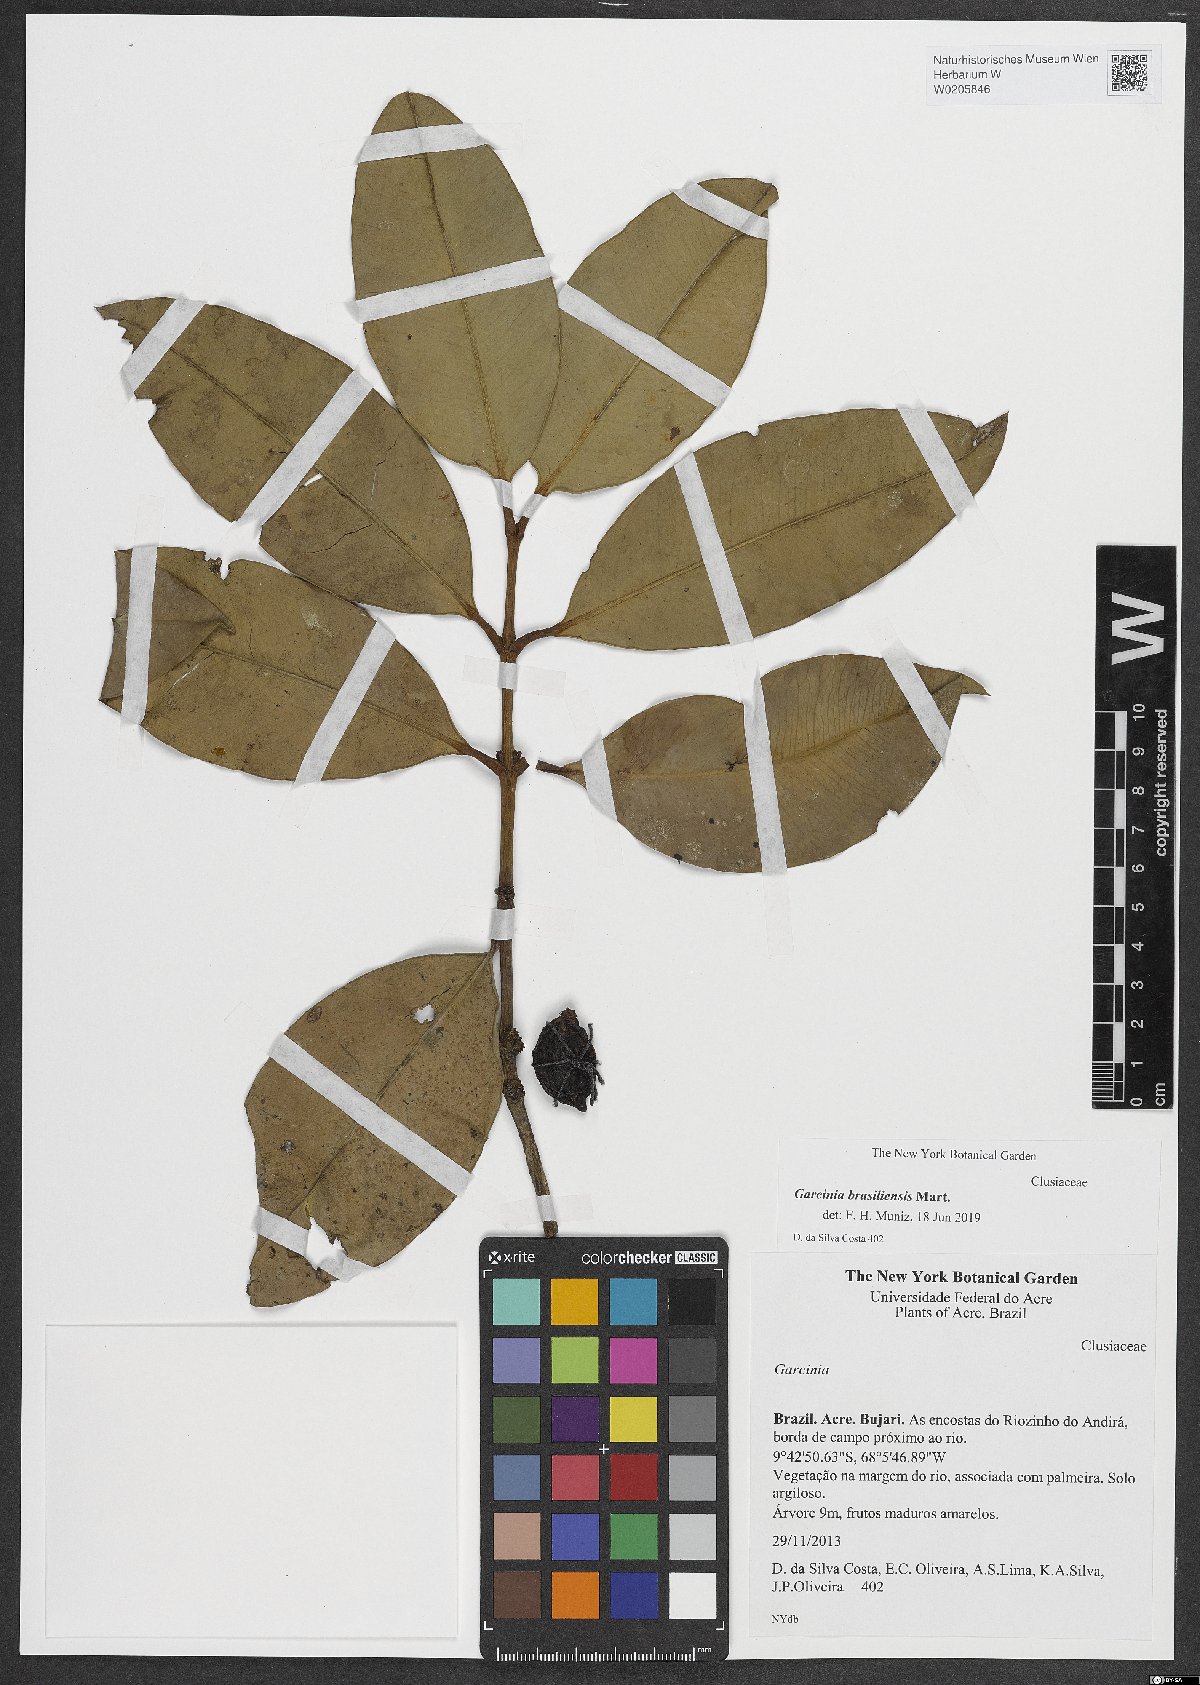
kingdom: Plantae
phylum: Tracheophyta
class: Magnoliopsida
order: Malpighiales
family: Clusiaceae
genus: Garcinia
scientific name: Garcinia brasiliensis
